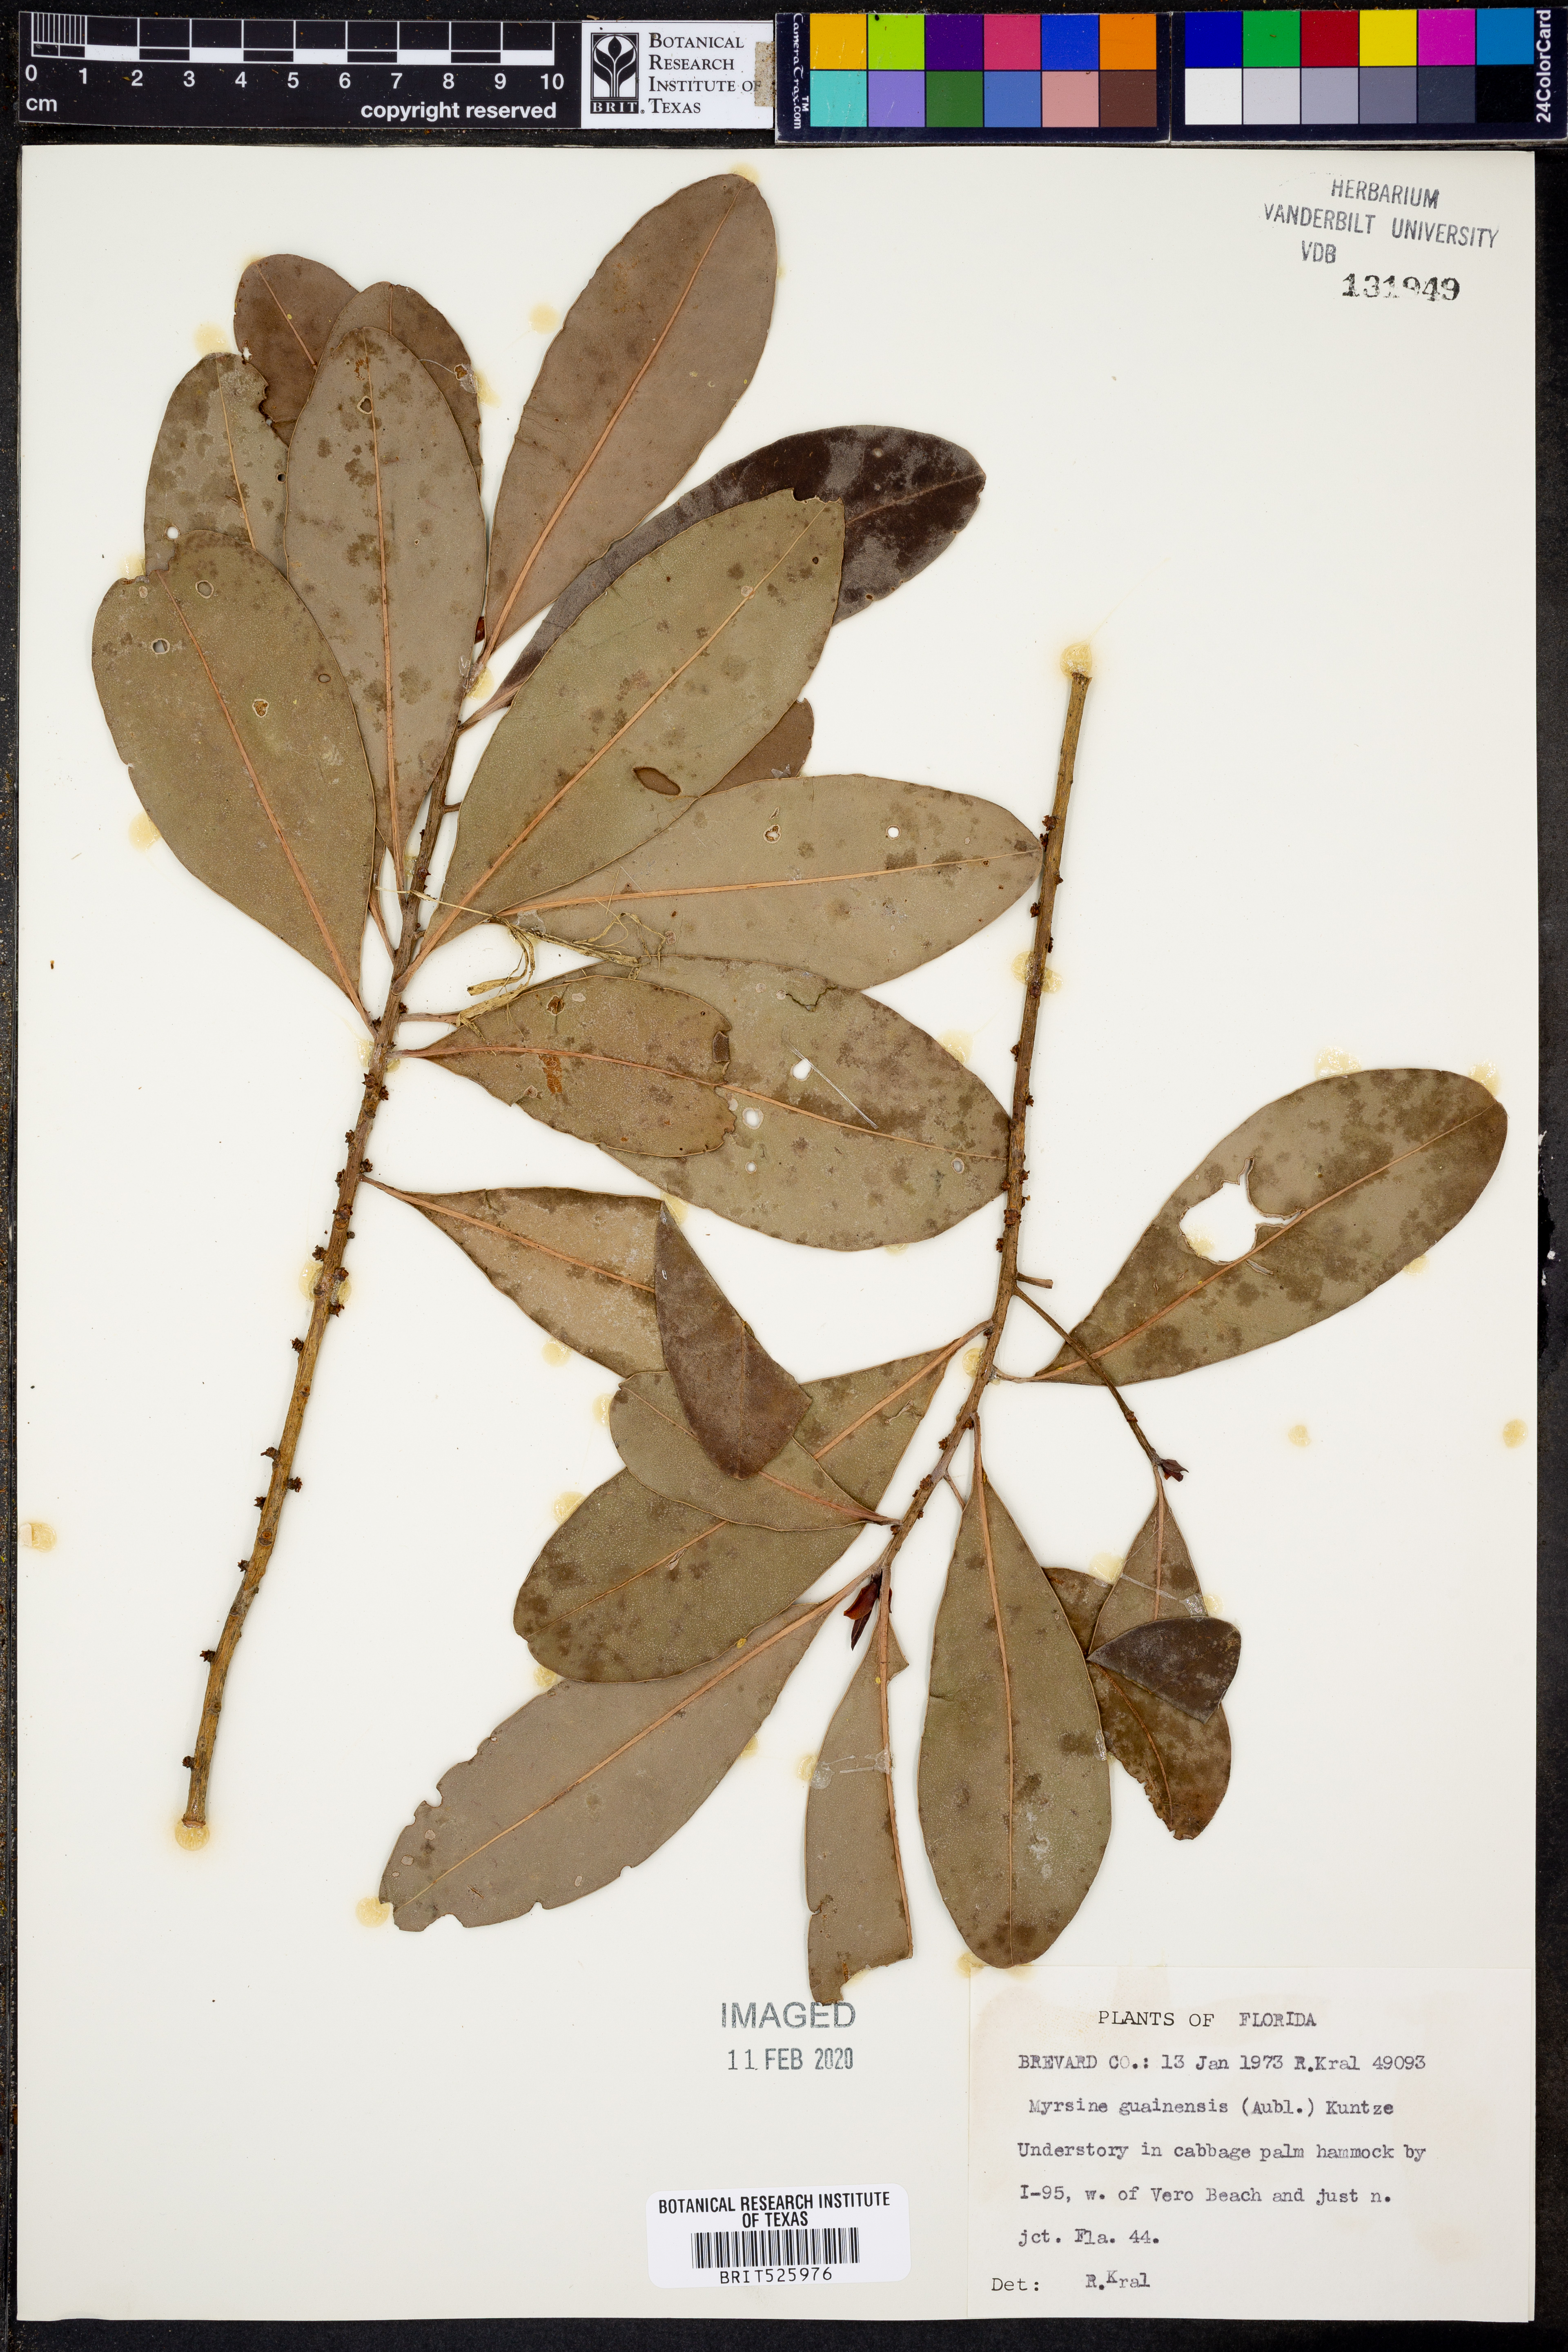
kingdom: Plantae
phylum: Tracheophyta
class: Magnoliopsida
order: Ericales
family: Primulaceae
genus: Myrsine
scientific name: Myrsine guianensis
